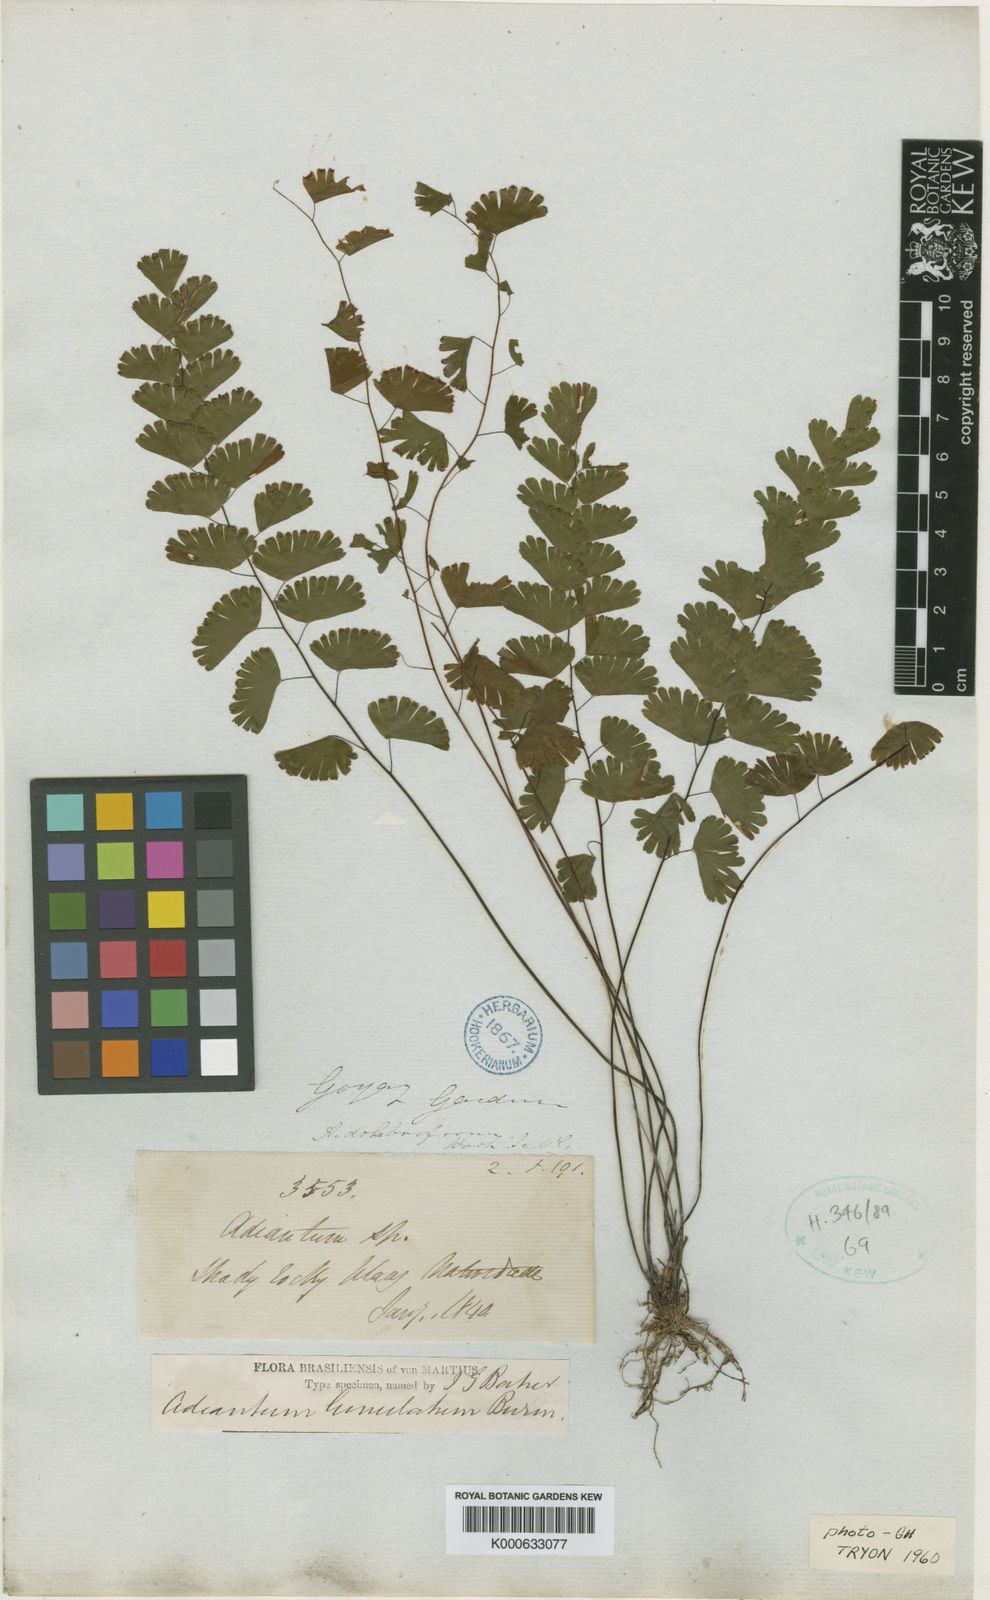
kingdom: Plantae
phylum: Tracheophyta
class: Polypodiopsida
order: Polypodiales
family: Pteridaceae
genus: Adiantum
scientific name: Adiantum deflectens
